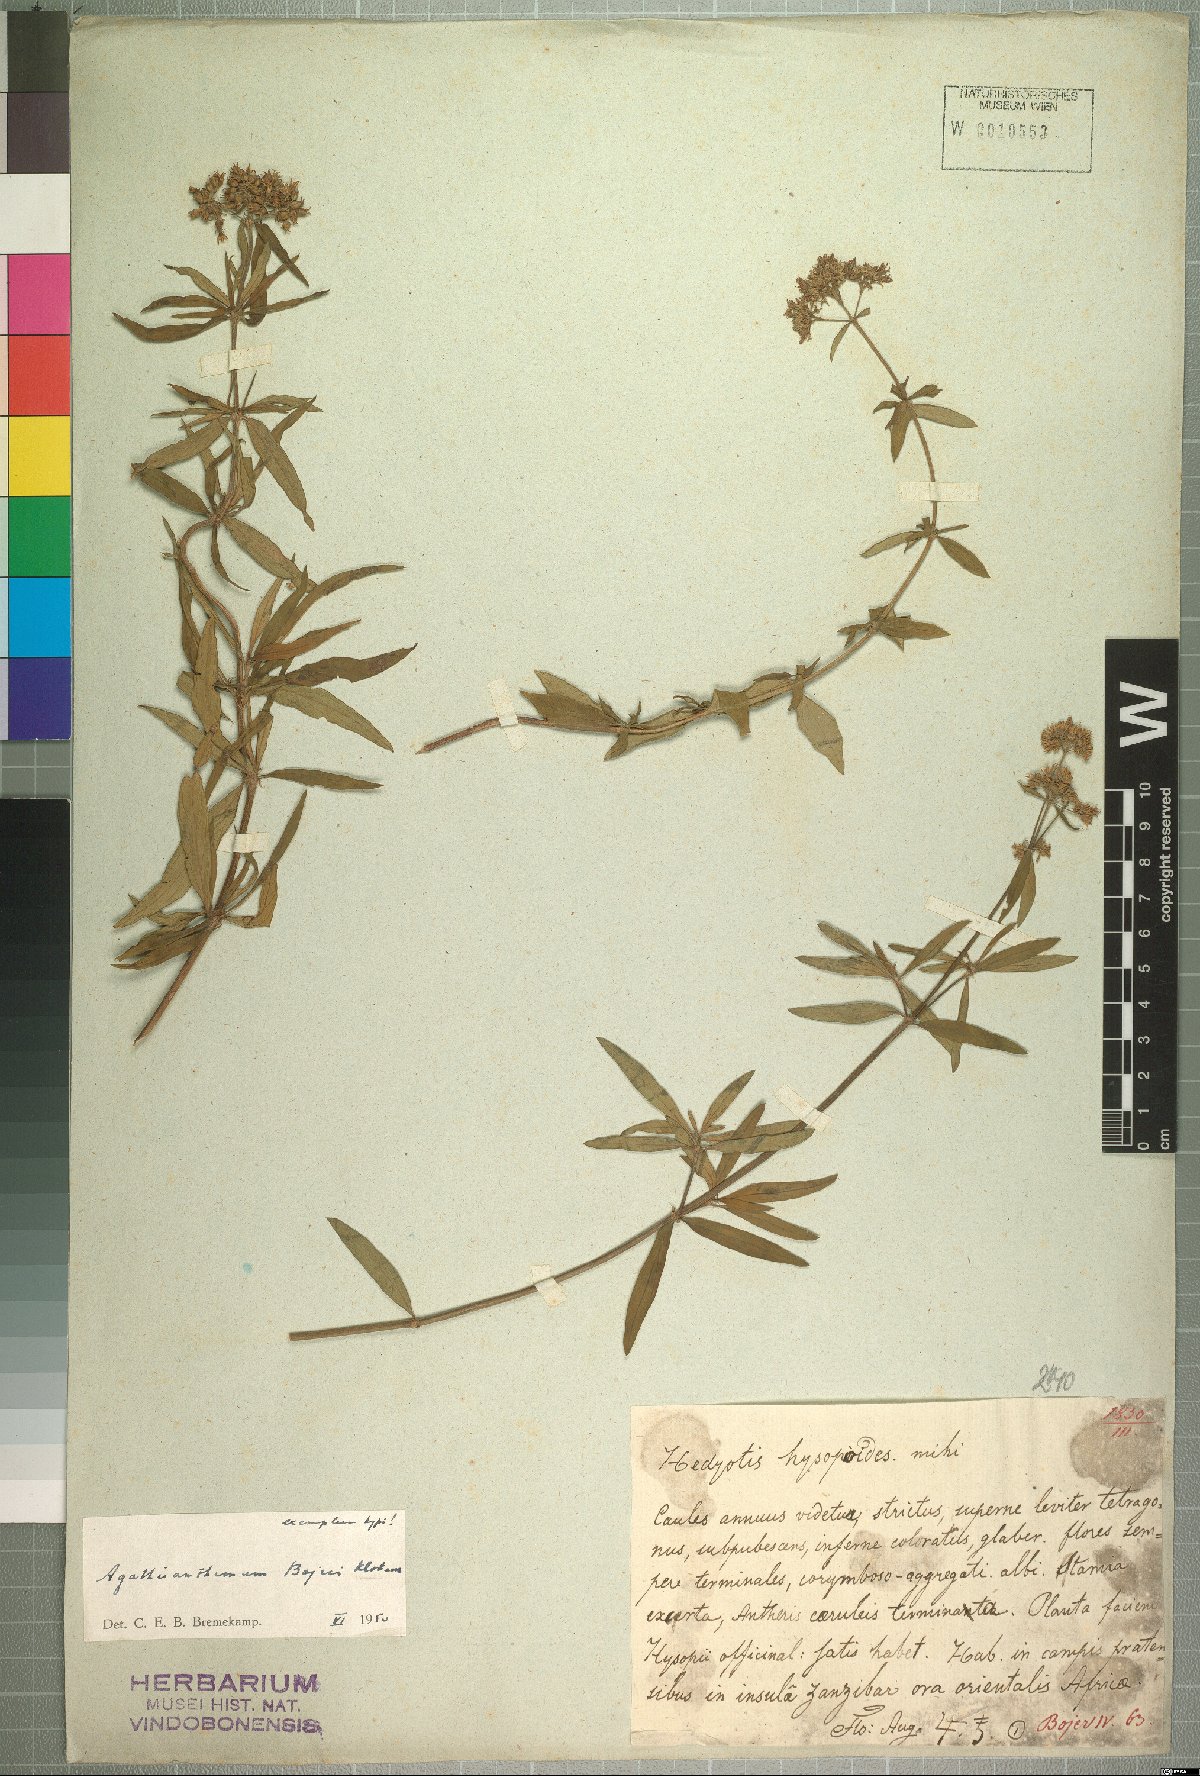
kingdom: Plantae
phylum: Tracheophyta
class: Magnoliopsida
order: Gentianales
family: Rubiaceae
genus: Agathisanthemum
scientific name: Agathisanthemum bojeri
